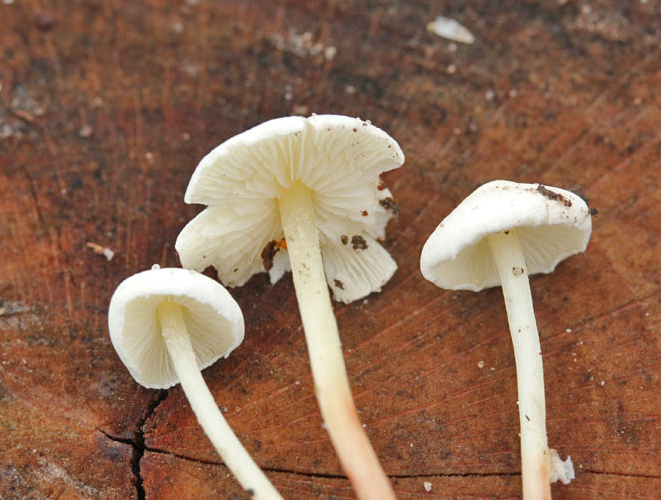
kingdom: Fungi
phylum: Basidiomycota
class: Agaricomycetes
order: Agaricales
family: Agaricaceae
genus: Cystolepiota
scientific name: Cystolepiota seminuda
